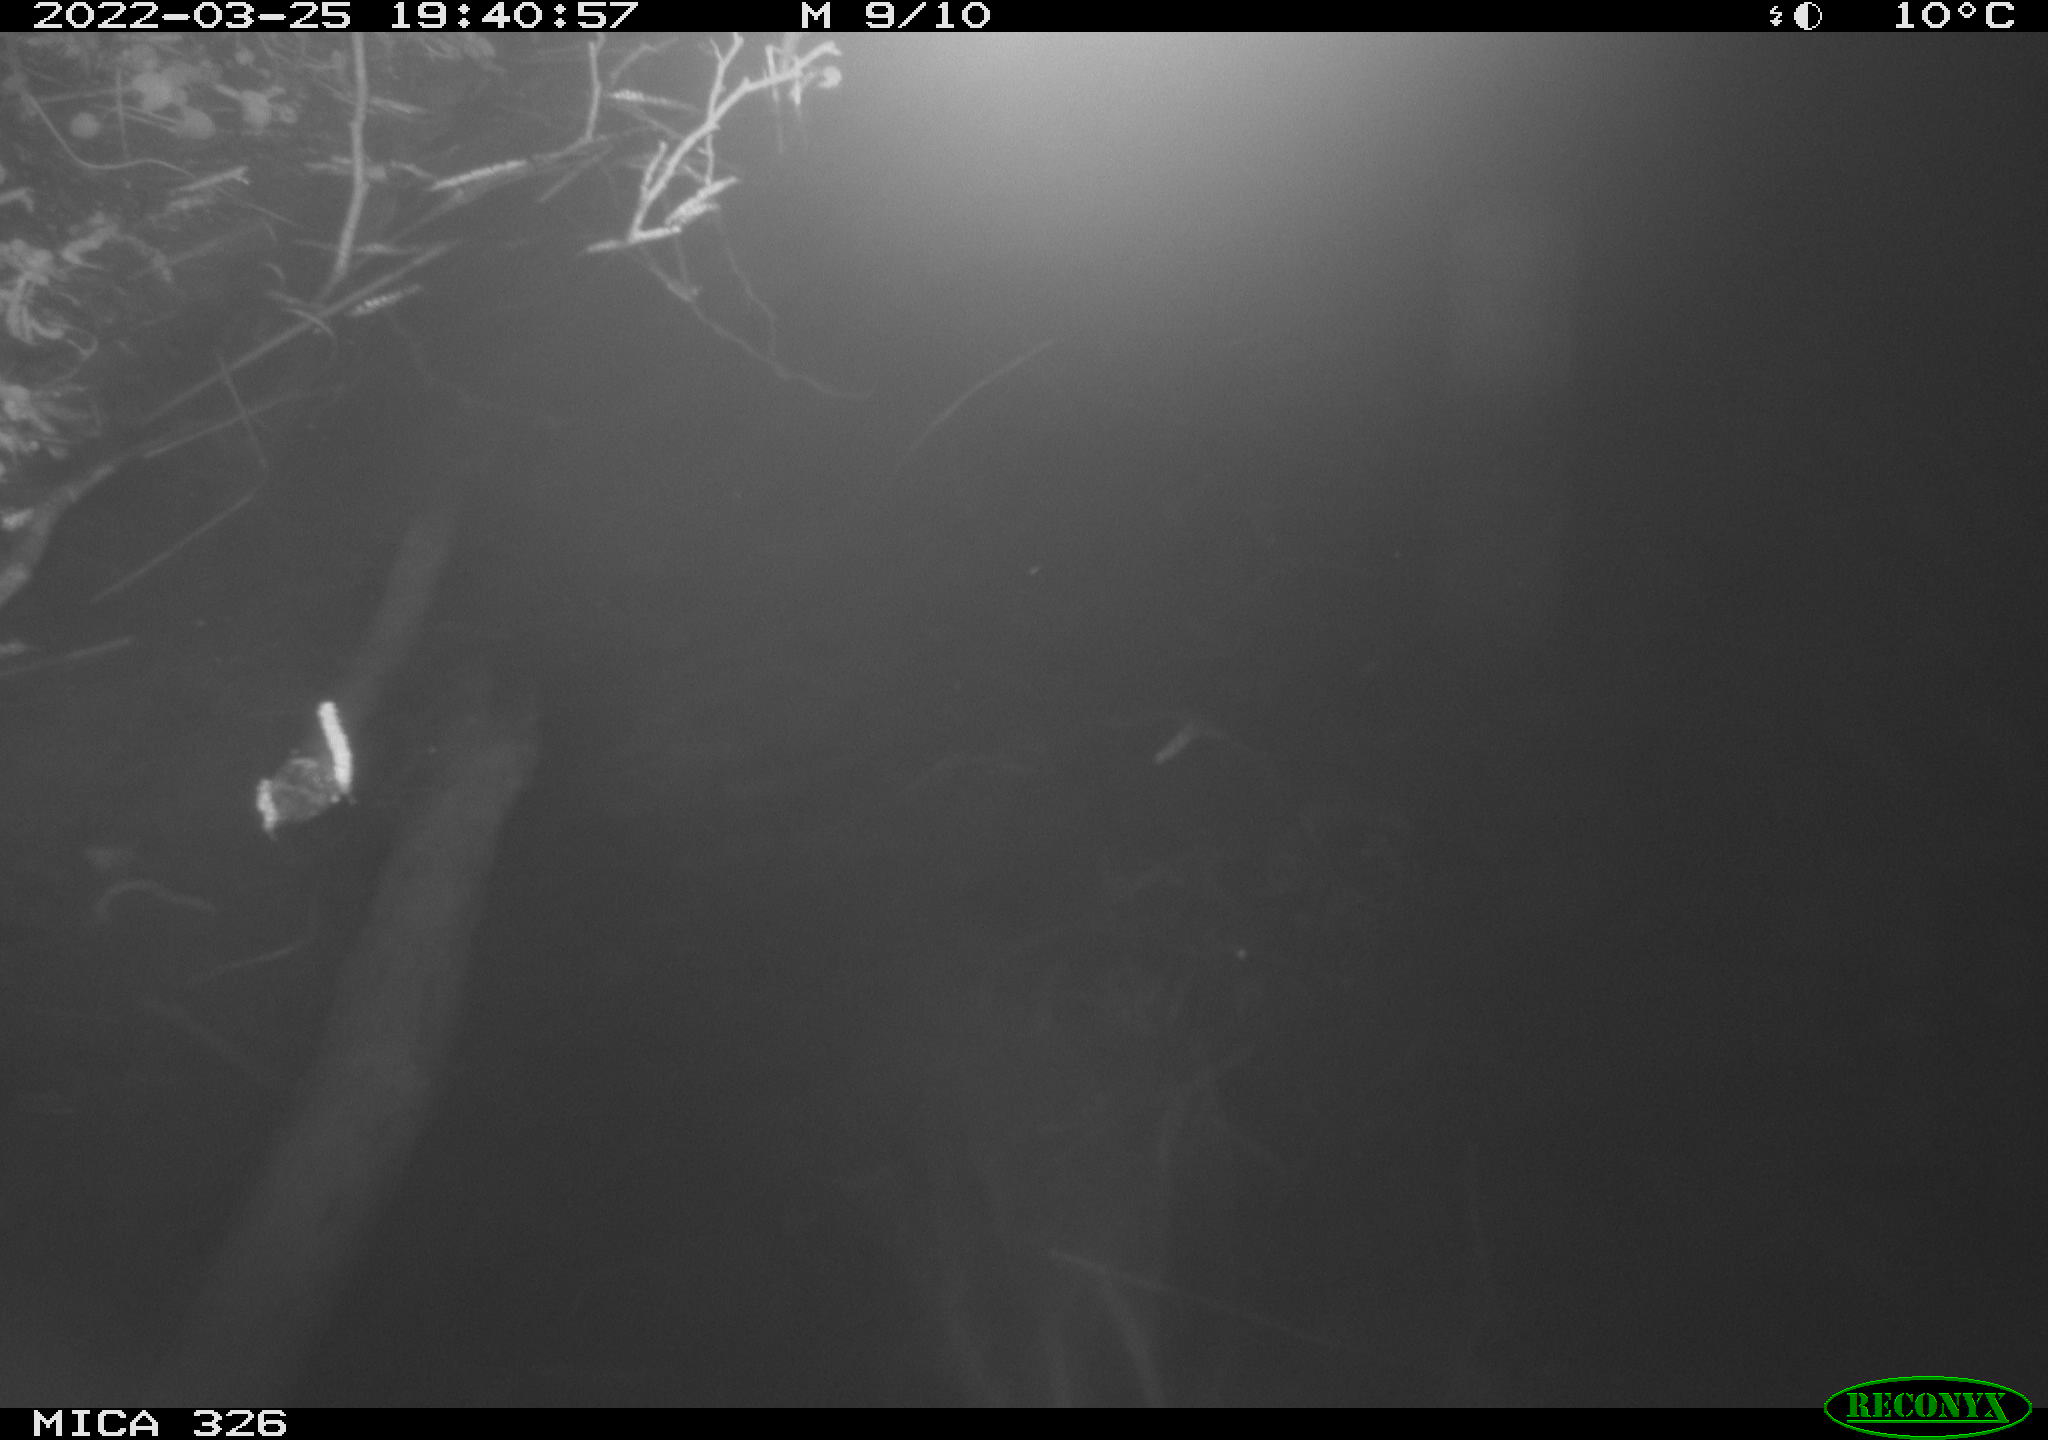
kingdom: Animalia
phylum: Chordata
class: Mammalia
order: Rodentia
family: Muridae
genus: Rattus
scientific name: Rattus norvegicus
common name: Brown rat
